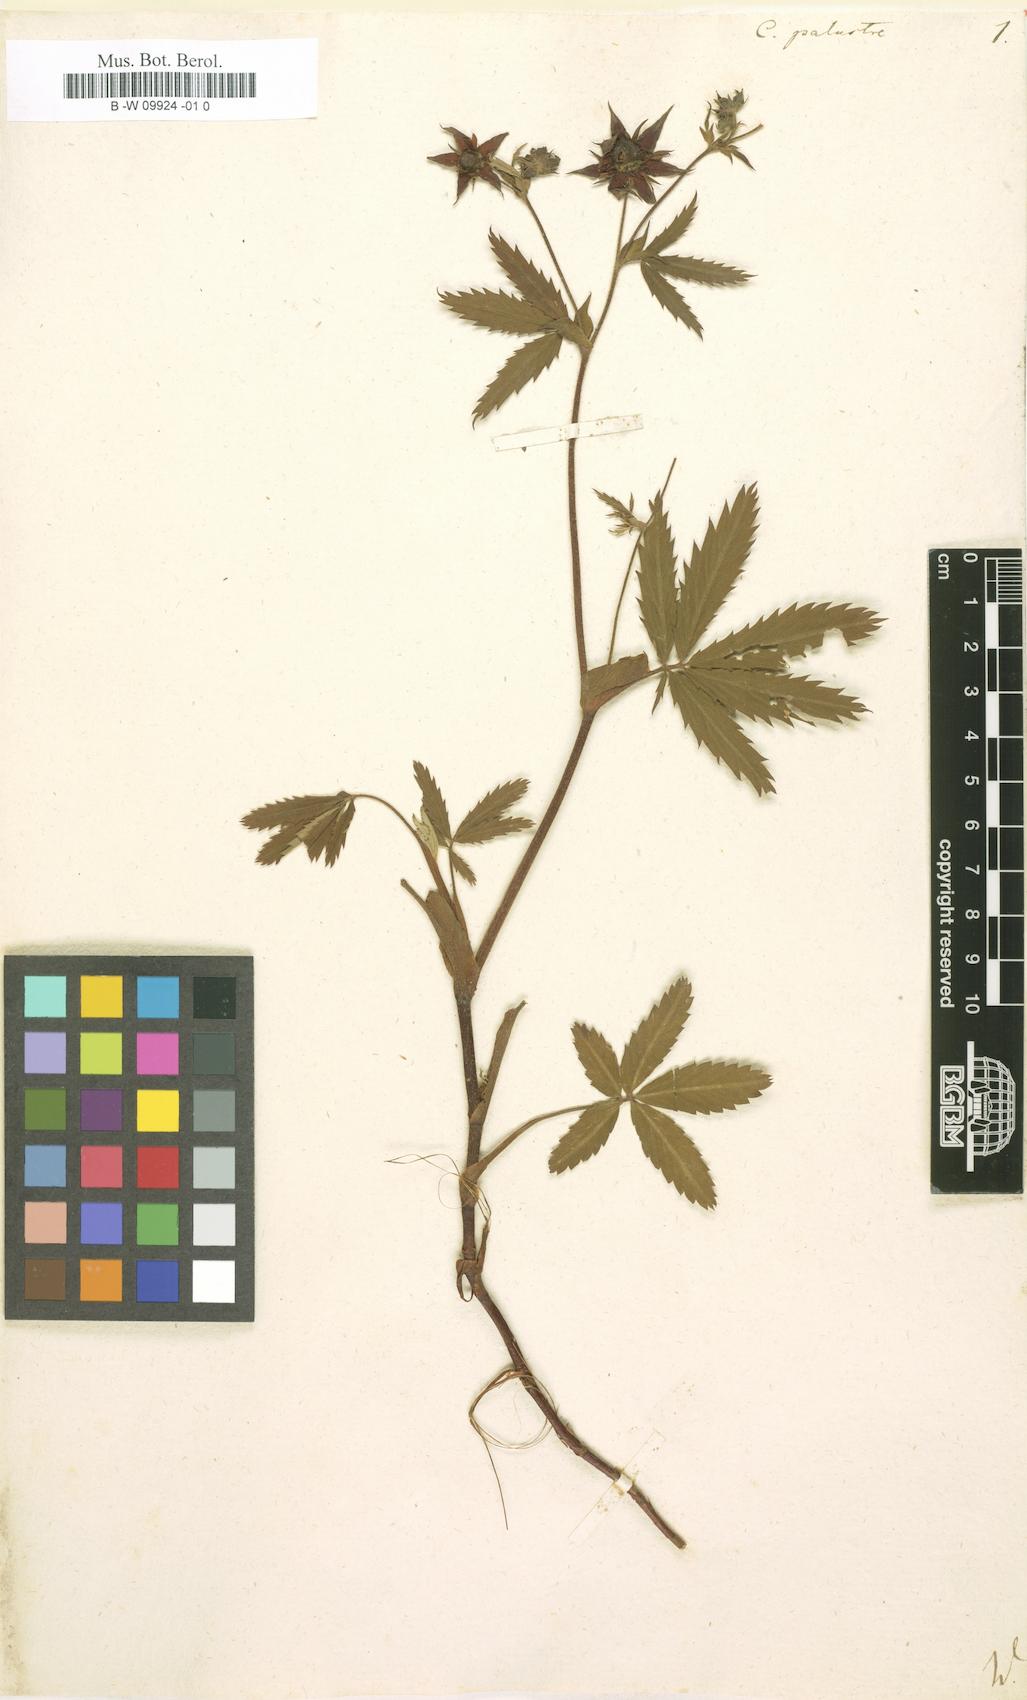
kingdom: Plantae
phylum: Tracheophyta
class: Magnoliopsida
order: Rosales
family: Rosaceae
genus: Comarum
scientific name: Comarum palustre
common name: Marsh cinquefoil
